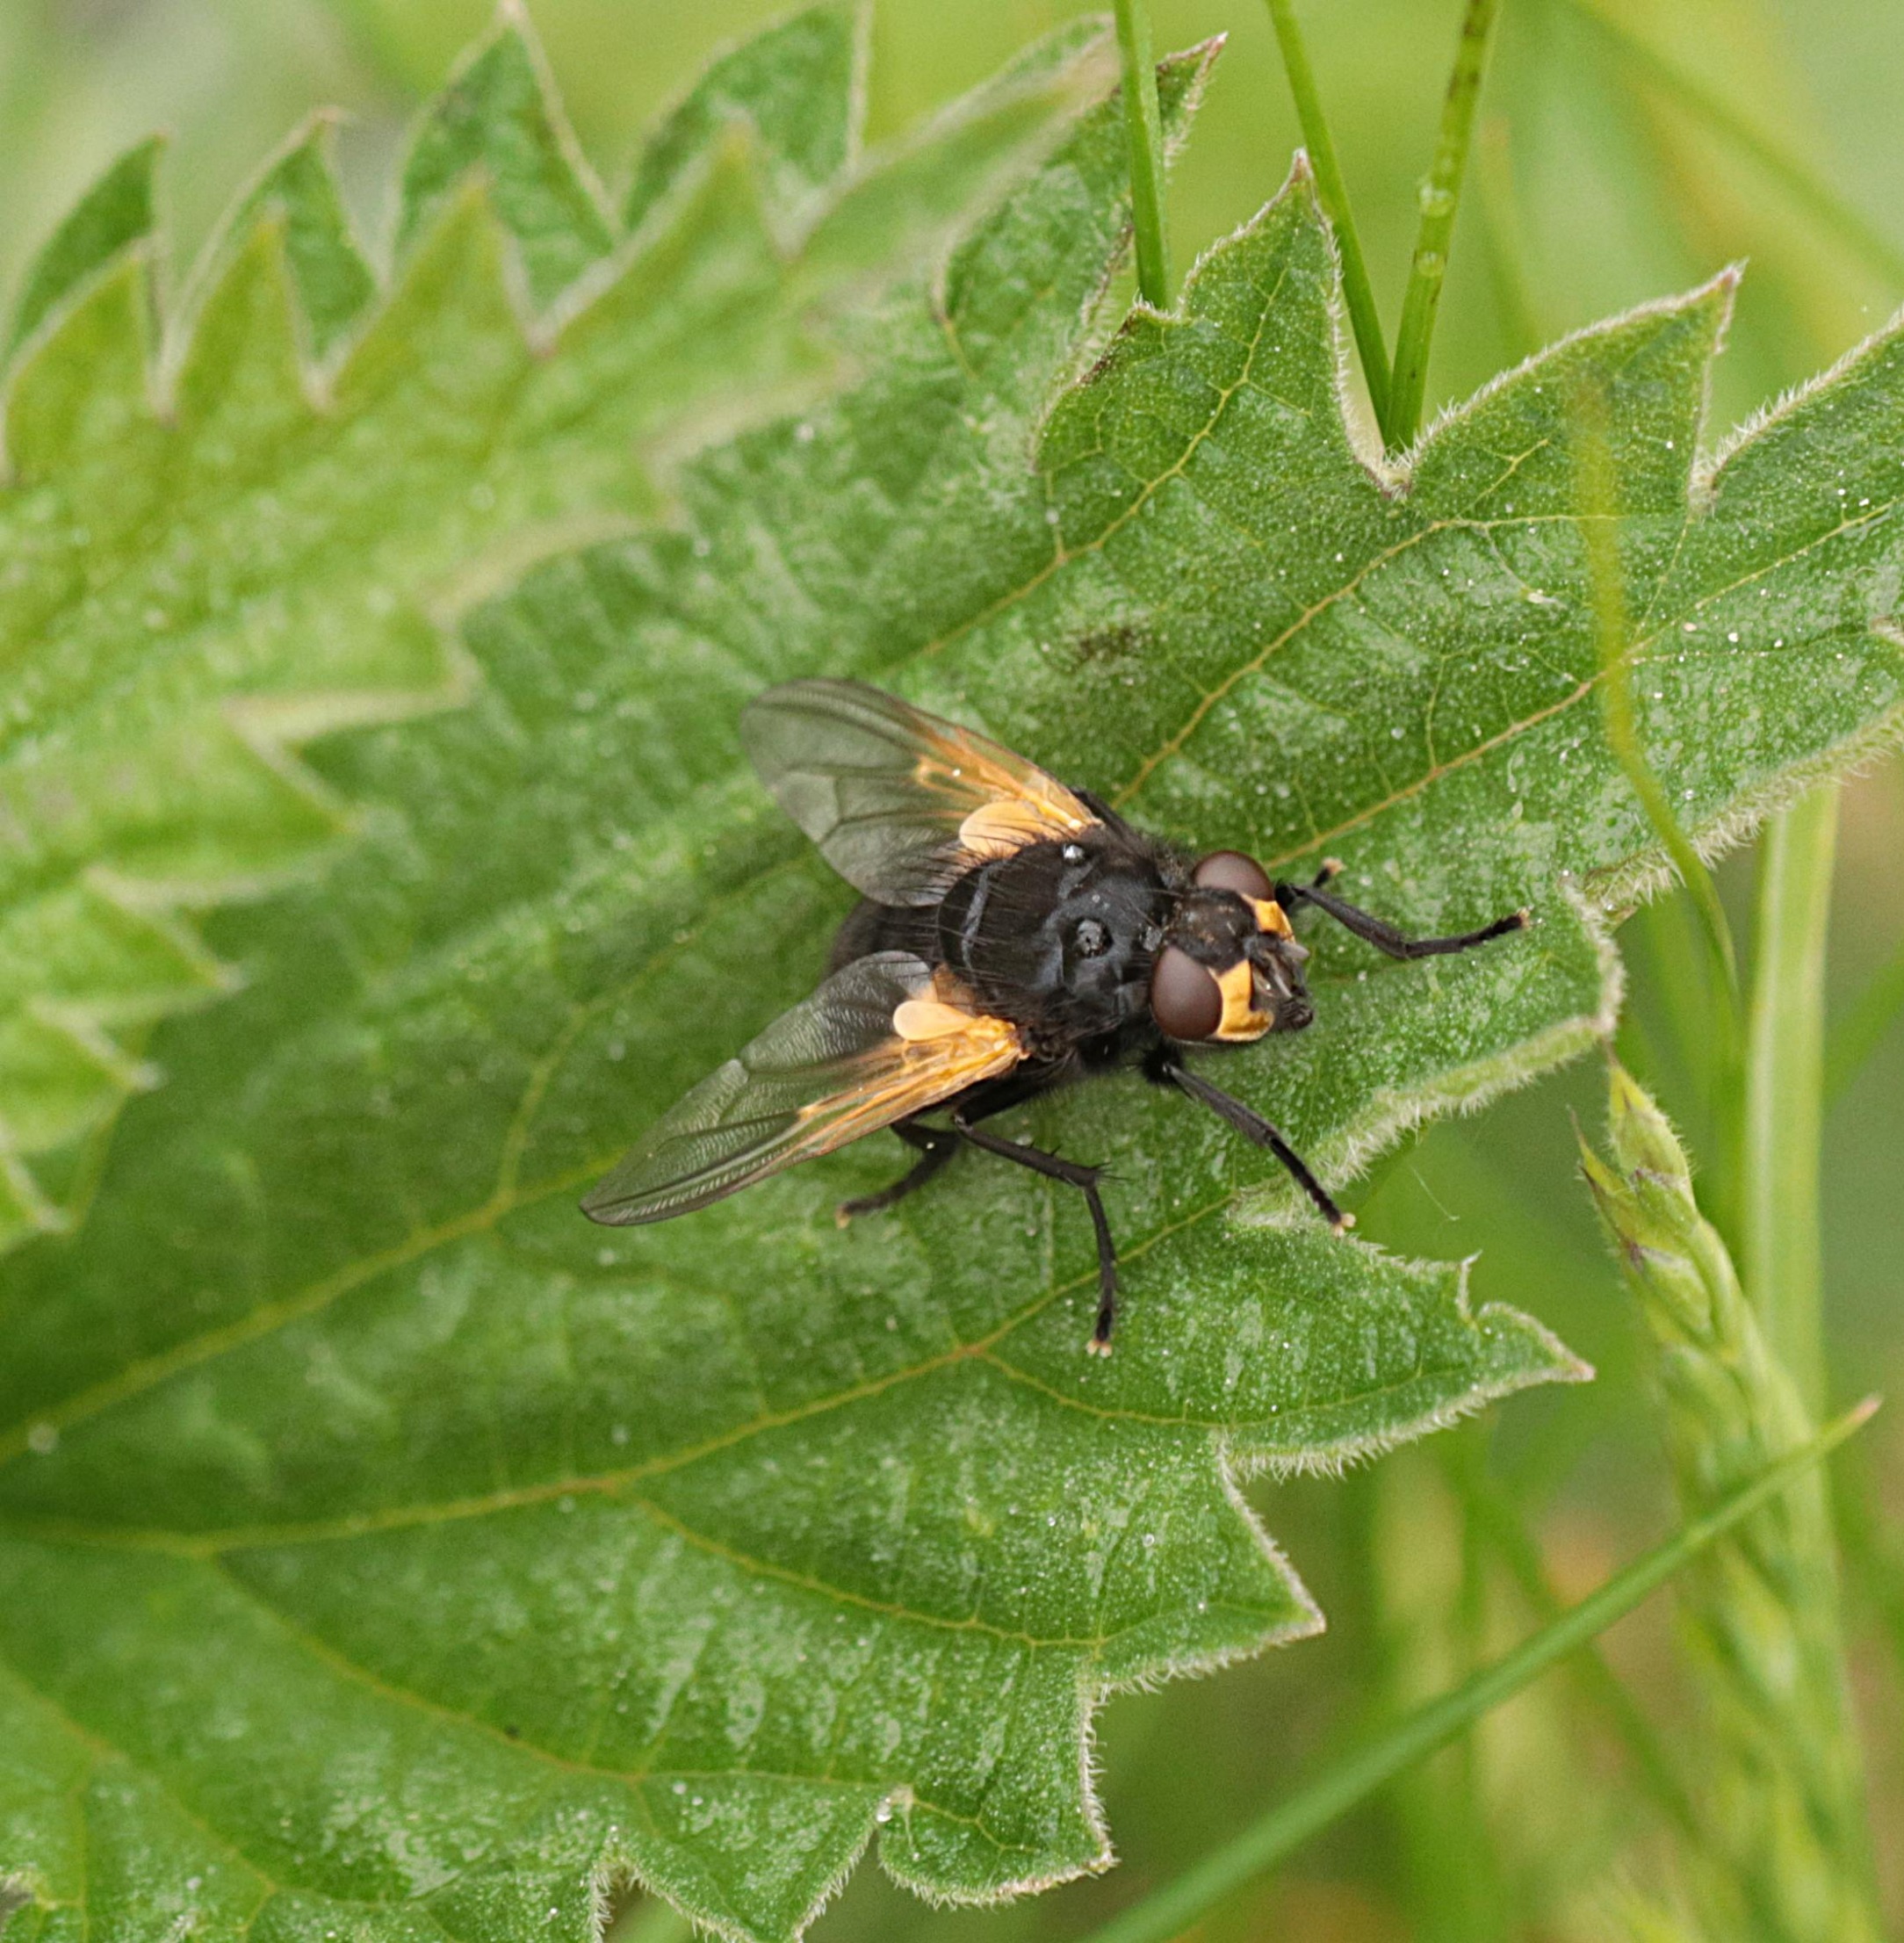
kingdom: Animalia
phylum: Arthropoda
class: Insecta
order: Diptera
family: Muscidae
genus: Mesembrina
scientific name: Mesembrina meridiana
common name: Gulvinget flue
